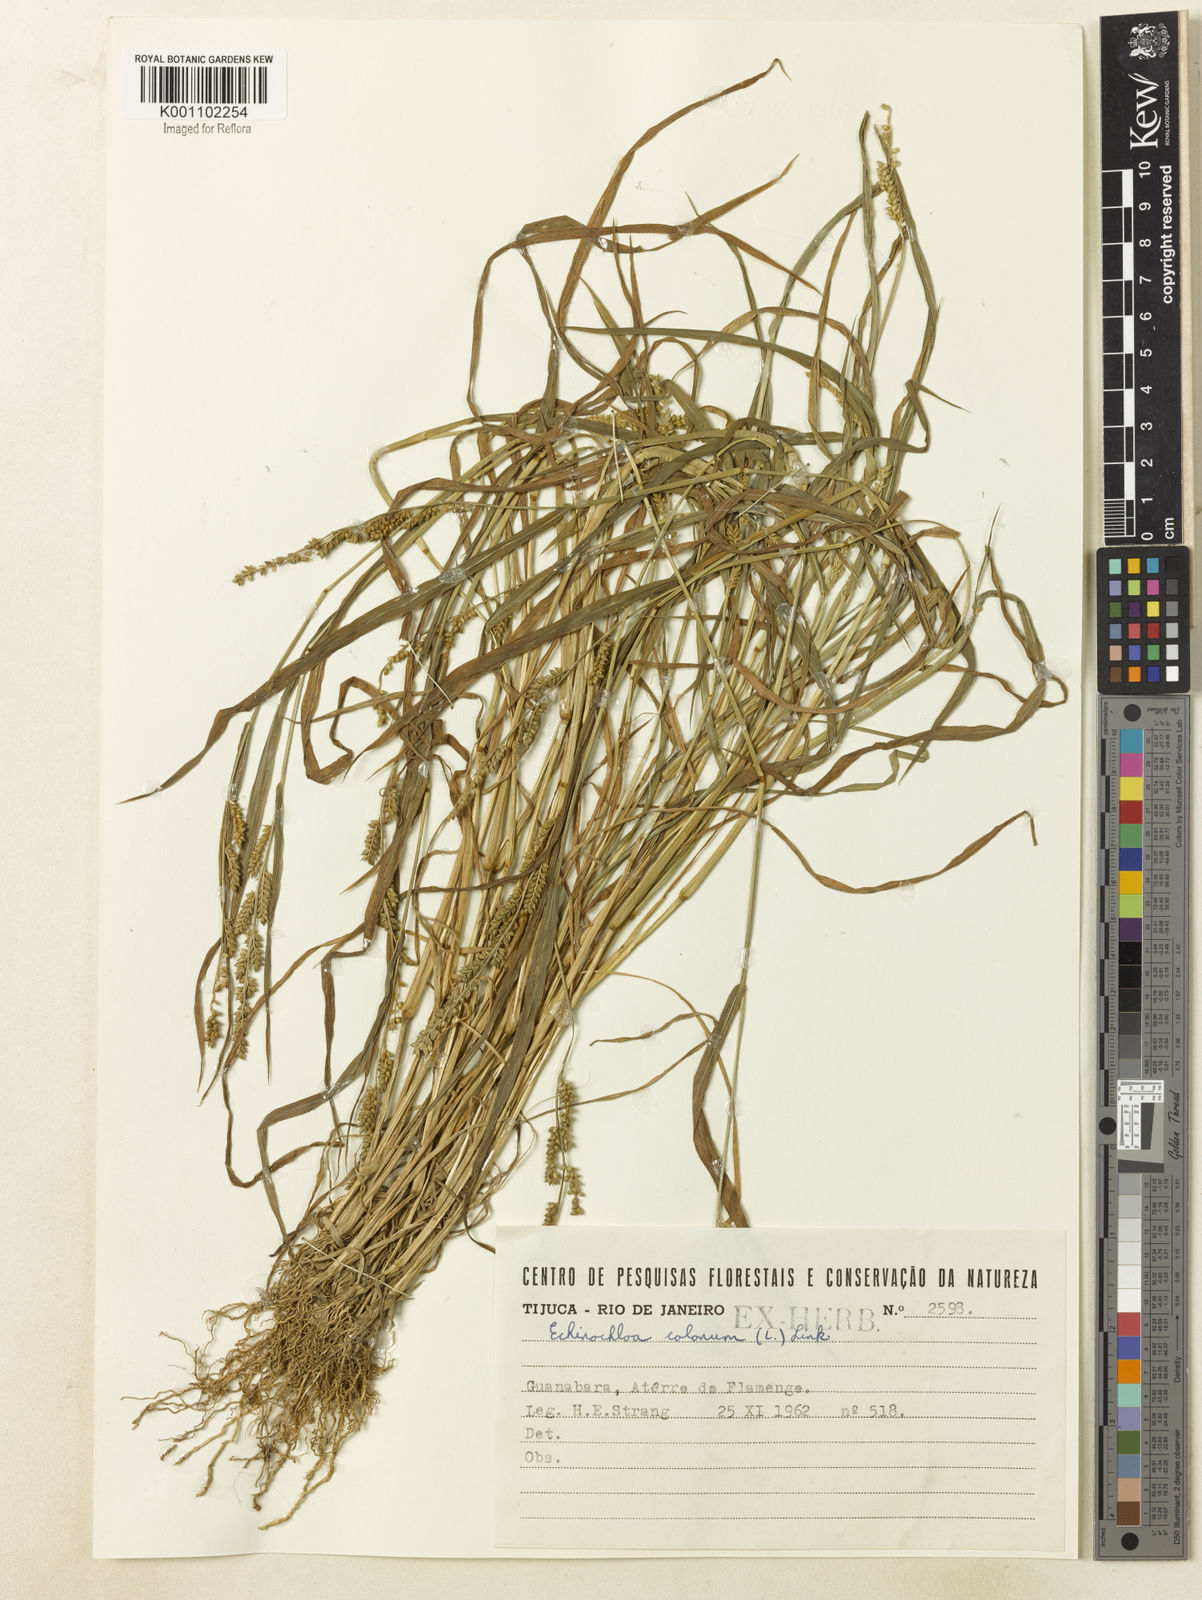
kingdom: Plantae
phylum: Tracheophyta
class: Liliopsida
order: Poales
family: Poaceae
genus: Echinochloa
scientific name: Echinochloa colonum
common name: Jungle rice
